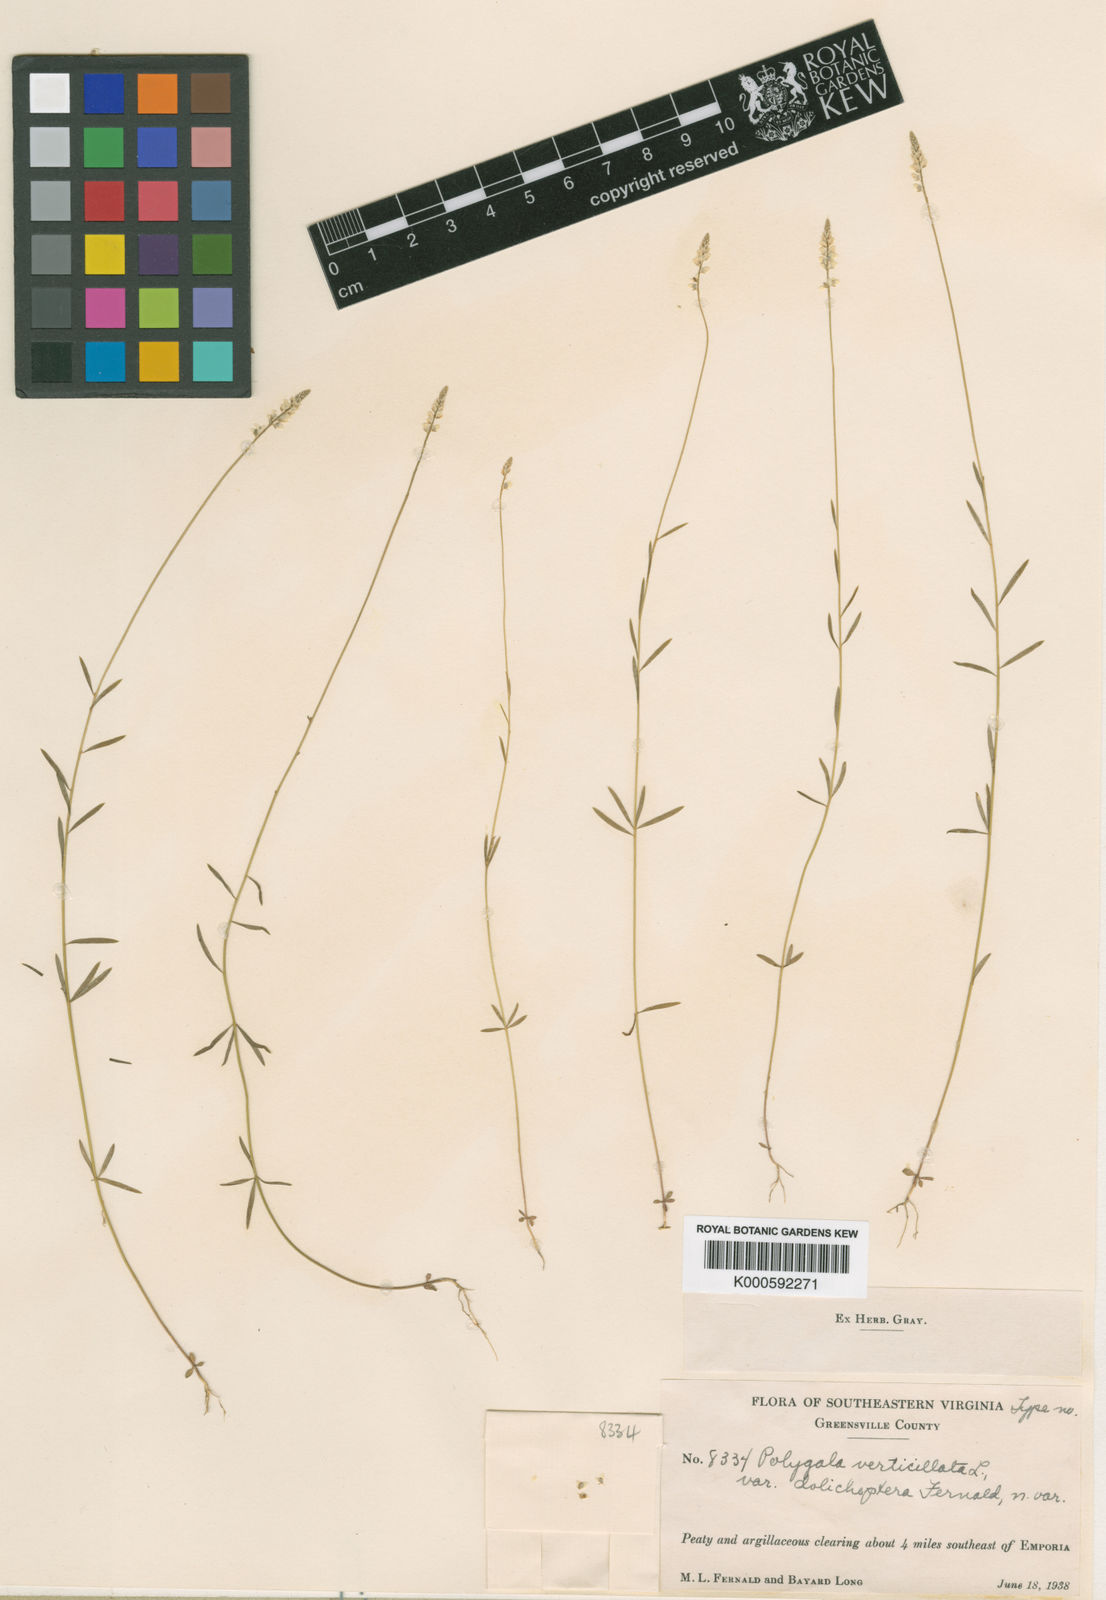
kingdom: Plantae
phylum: Tracheophyta
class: Magnoliopsida
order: Fabales
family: Polygalaceae
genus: Polygala
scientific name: Polygala verticillata
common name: Whorl milkwort
